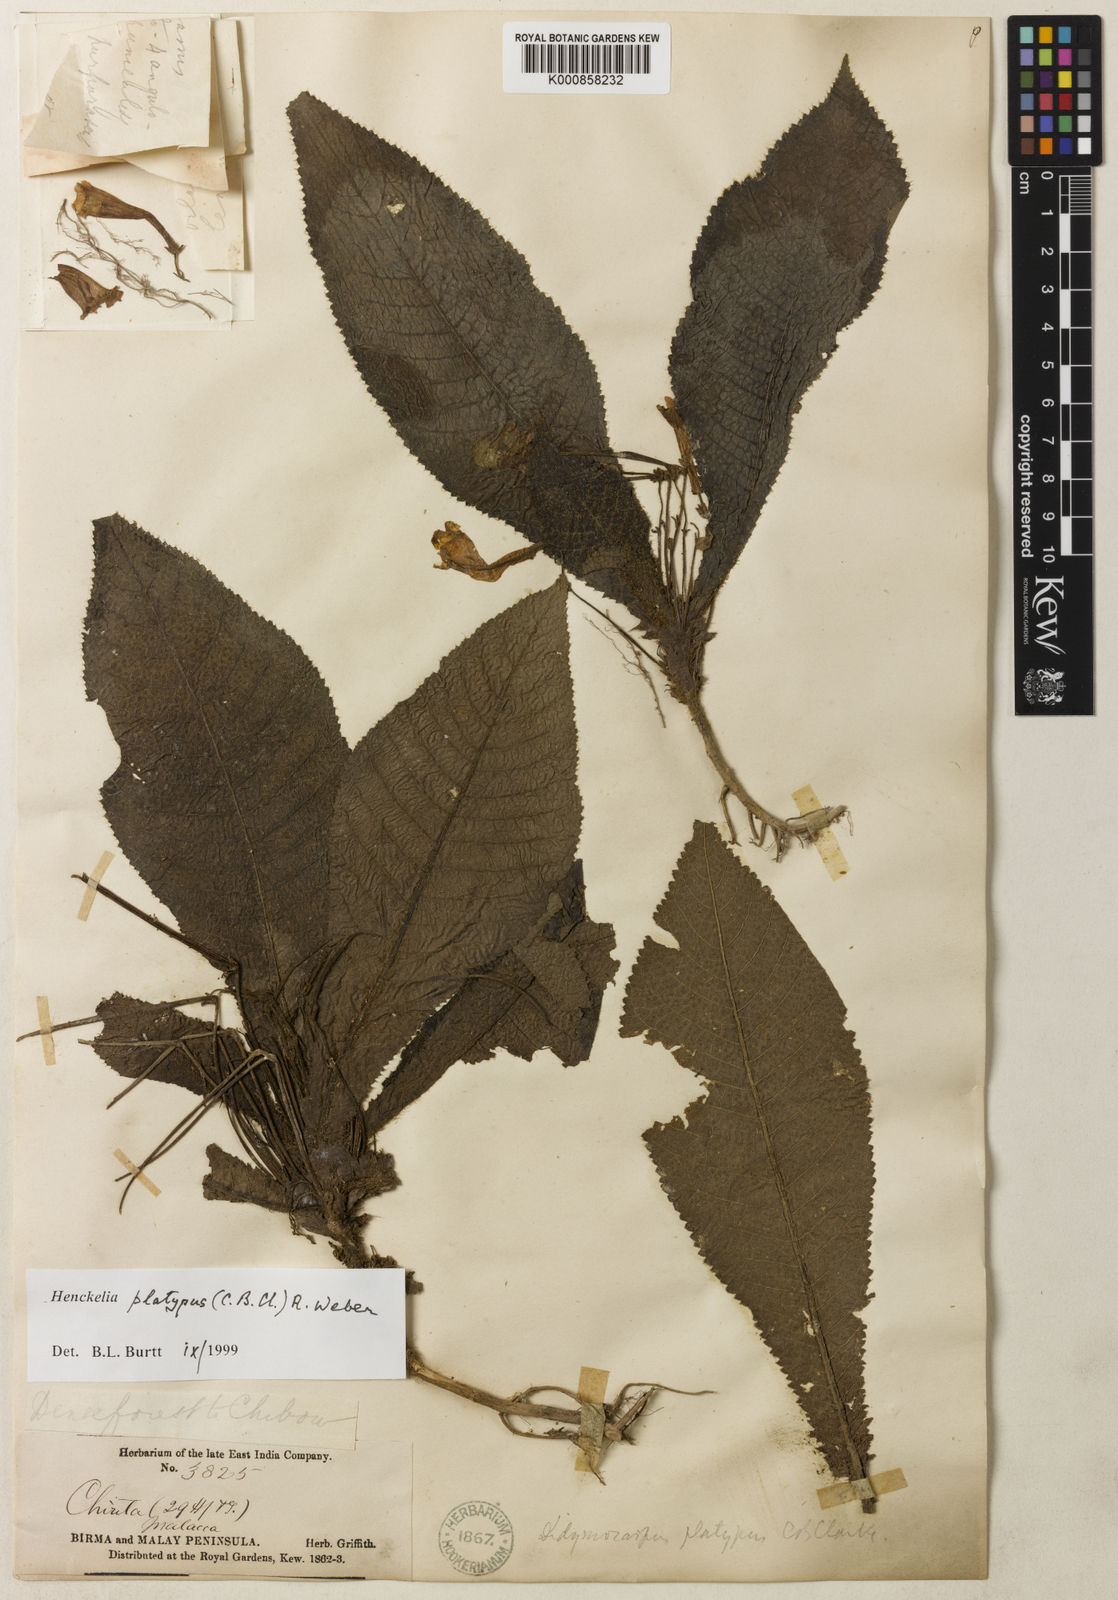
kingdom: Plantae
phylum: Tracheophyta
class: Magnoliopsida
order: Lamiales
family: Gesneriaceae
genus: Codonoboea
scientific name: Codonoboea platypus
